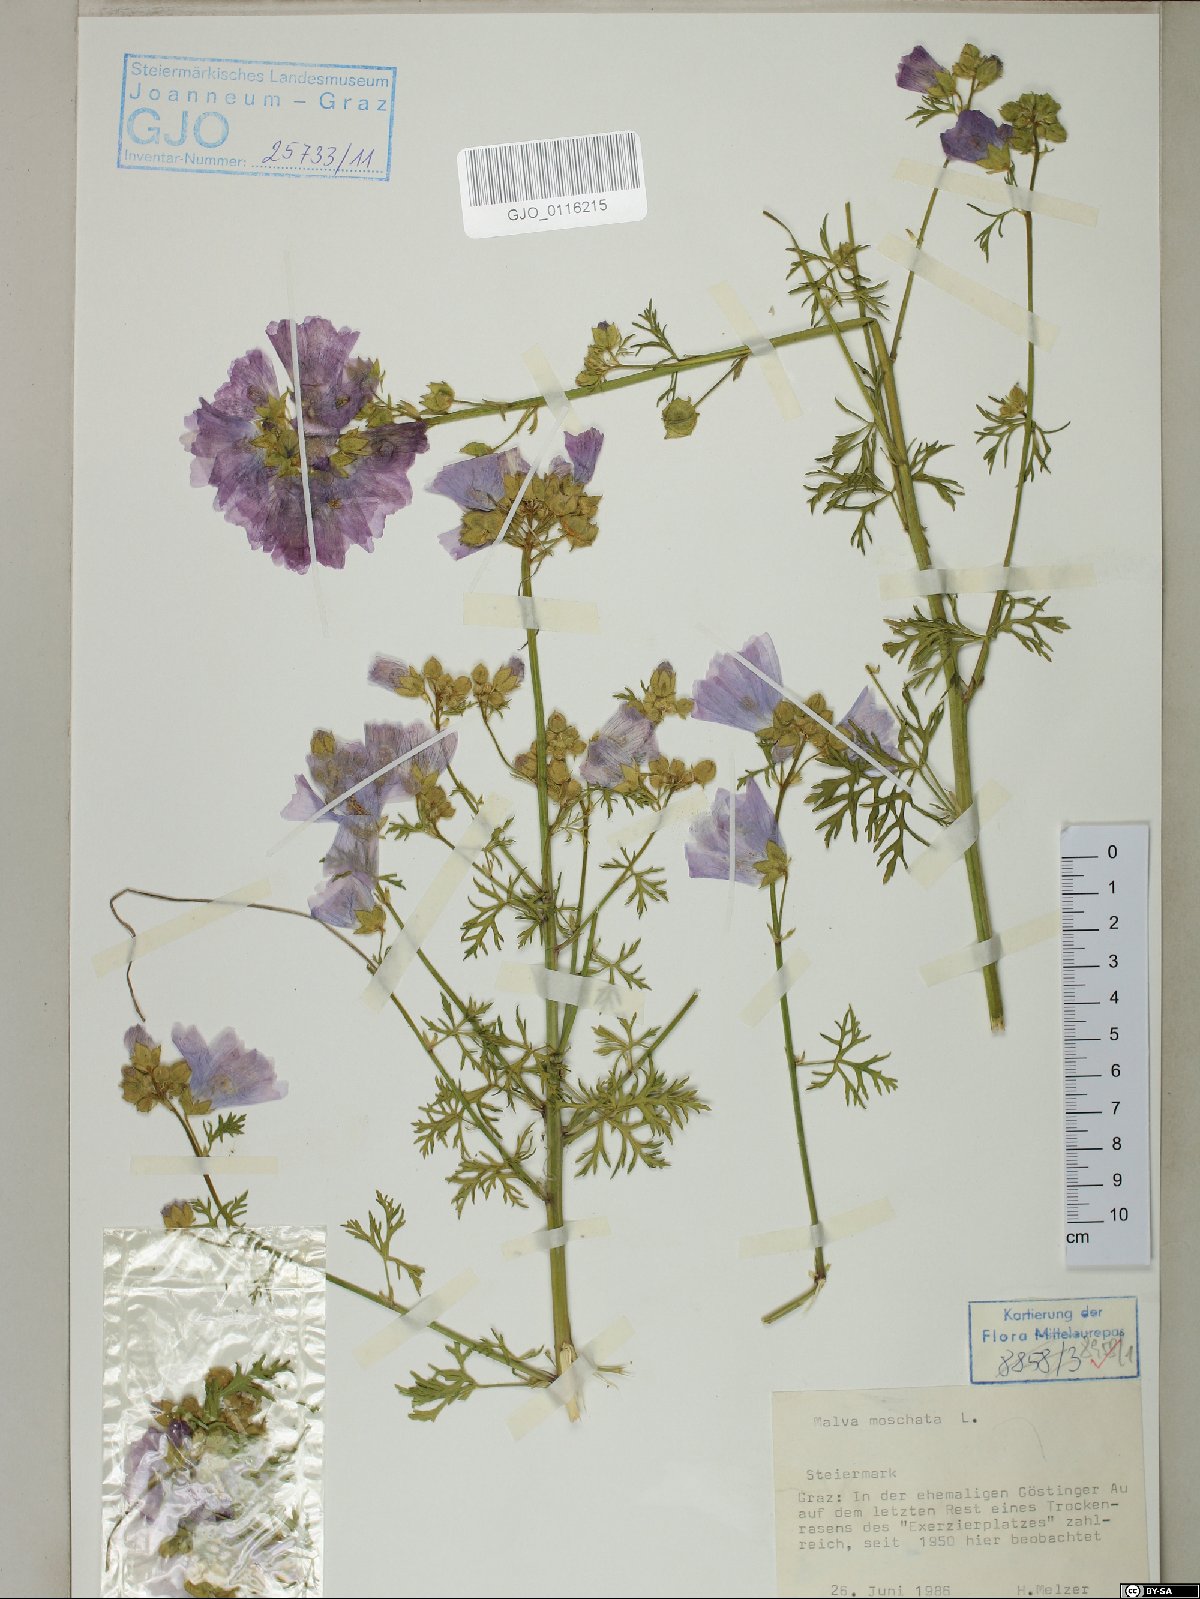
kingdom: Plantae
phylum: Tracheophyta
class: Magnoliopsida
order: Malvales
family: Malvaceae
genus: Malva
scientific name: Malva moschata
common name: Musk mallow
